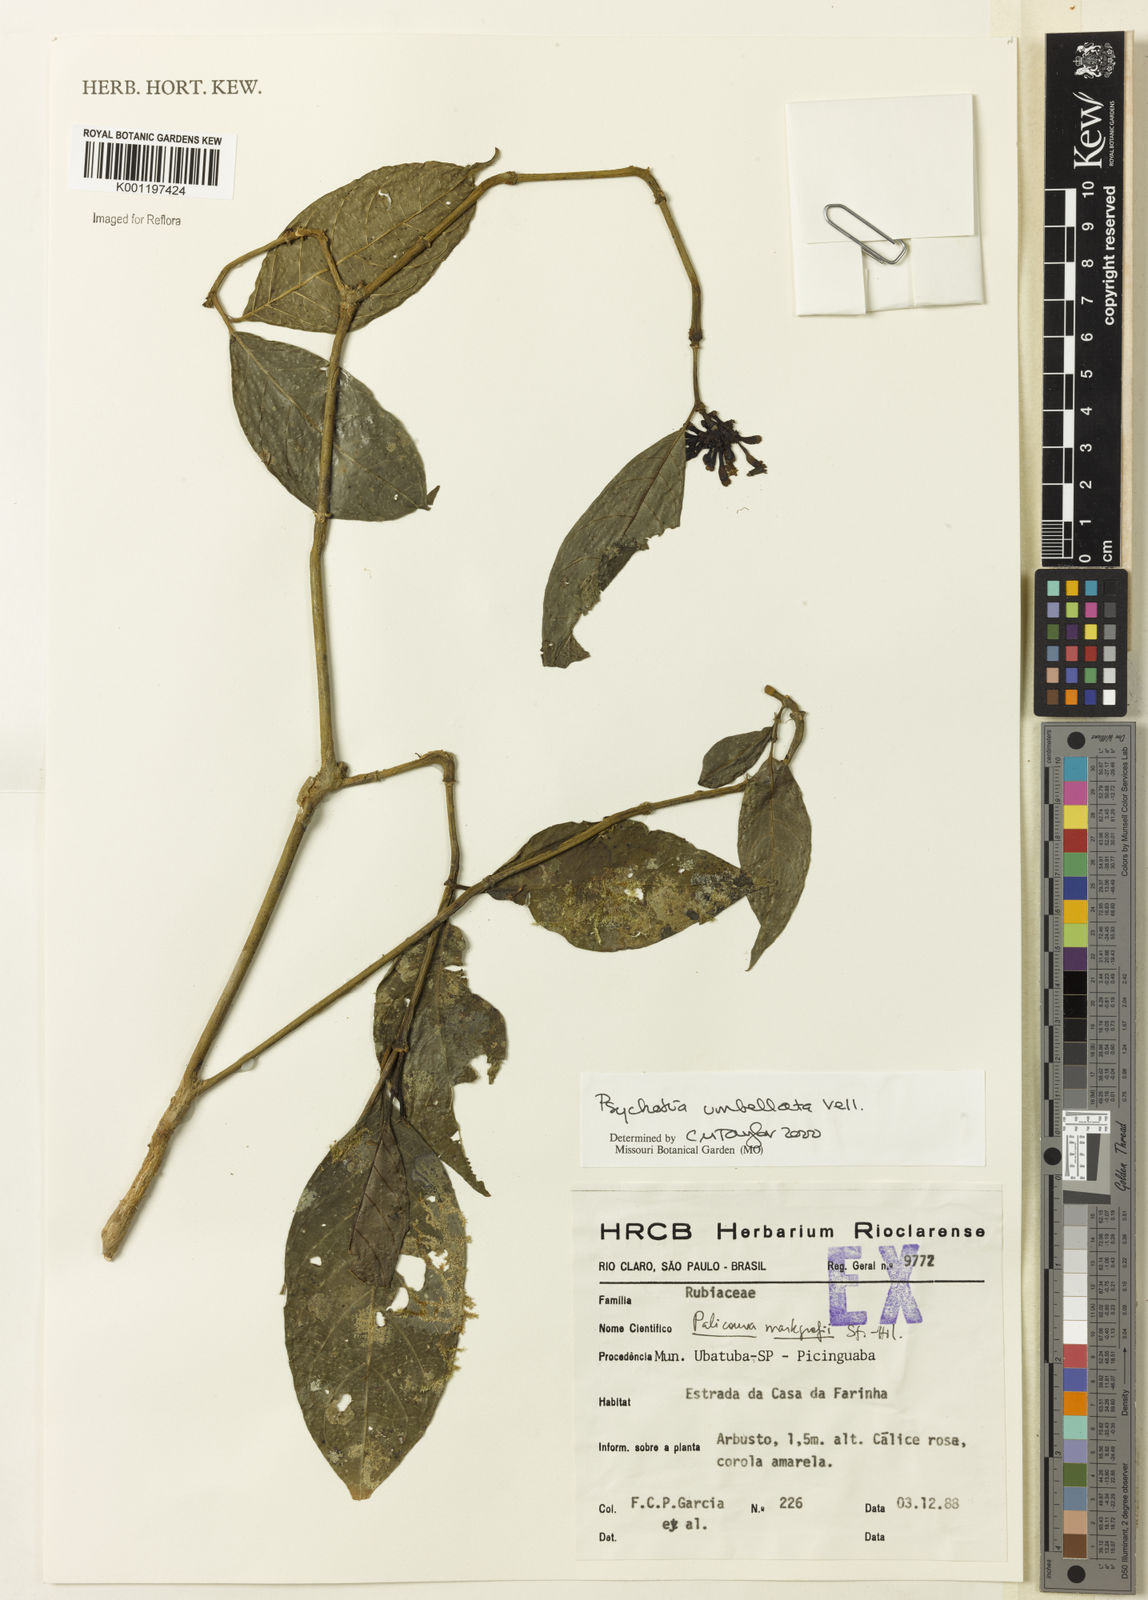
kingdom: Plantae
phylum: Tracheophyta
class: Magnoliopsida
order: Gentianales
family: Rubiaceae
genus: Psychotria
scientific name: Psychotria
